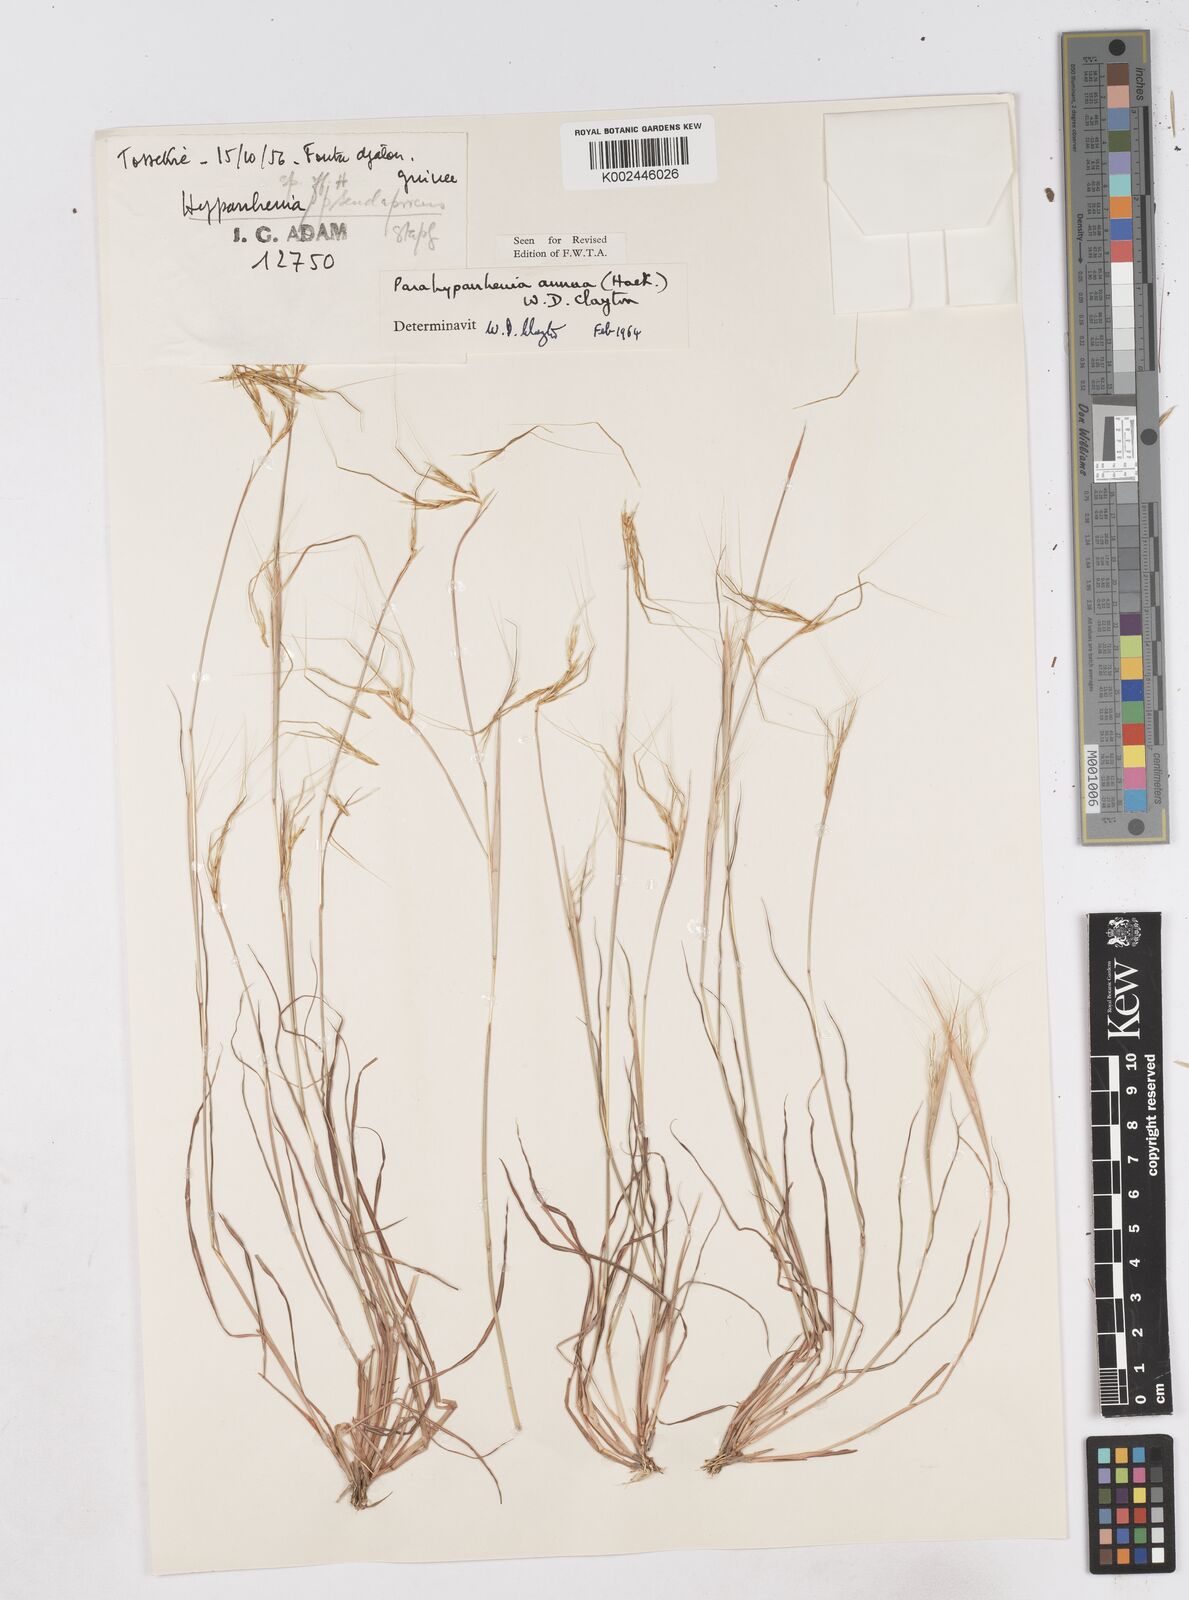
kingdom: Plantae
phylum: Tracheophyta
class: Liliopsida
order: Poales
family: Poaceae
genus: Parahyparrhenia
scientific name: Parahyparrhenia annua
